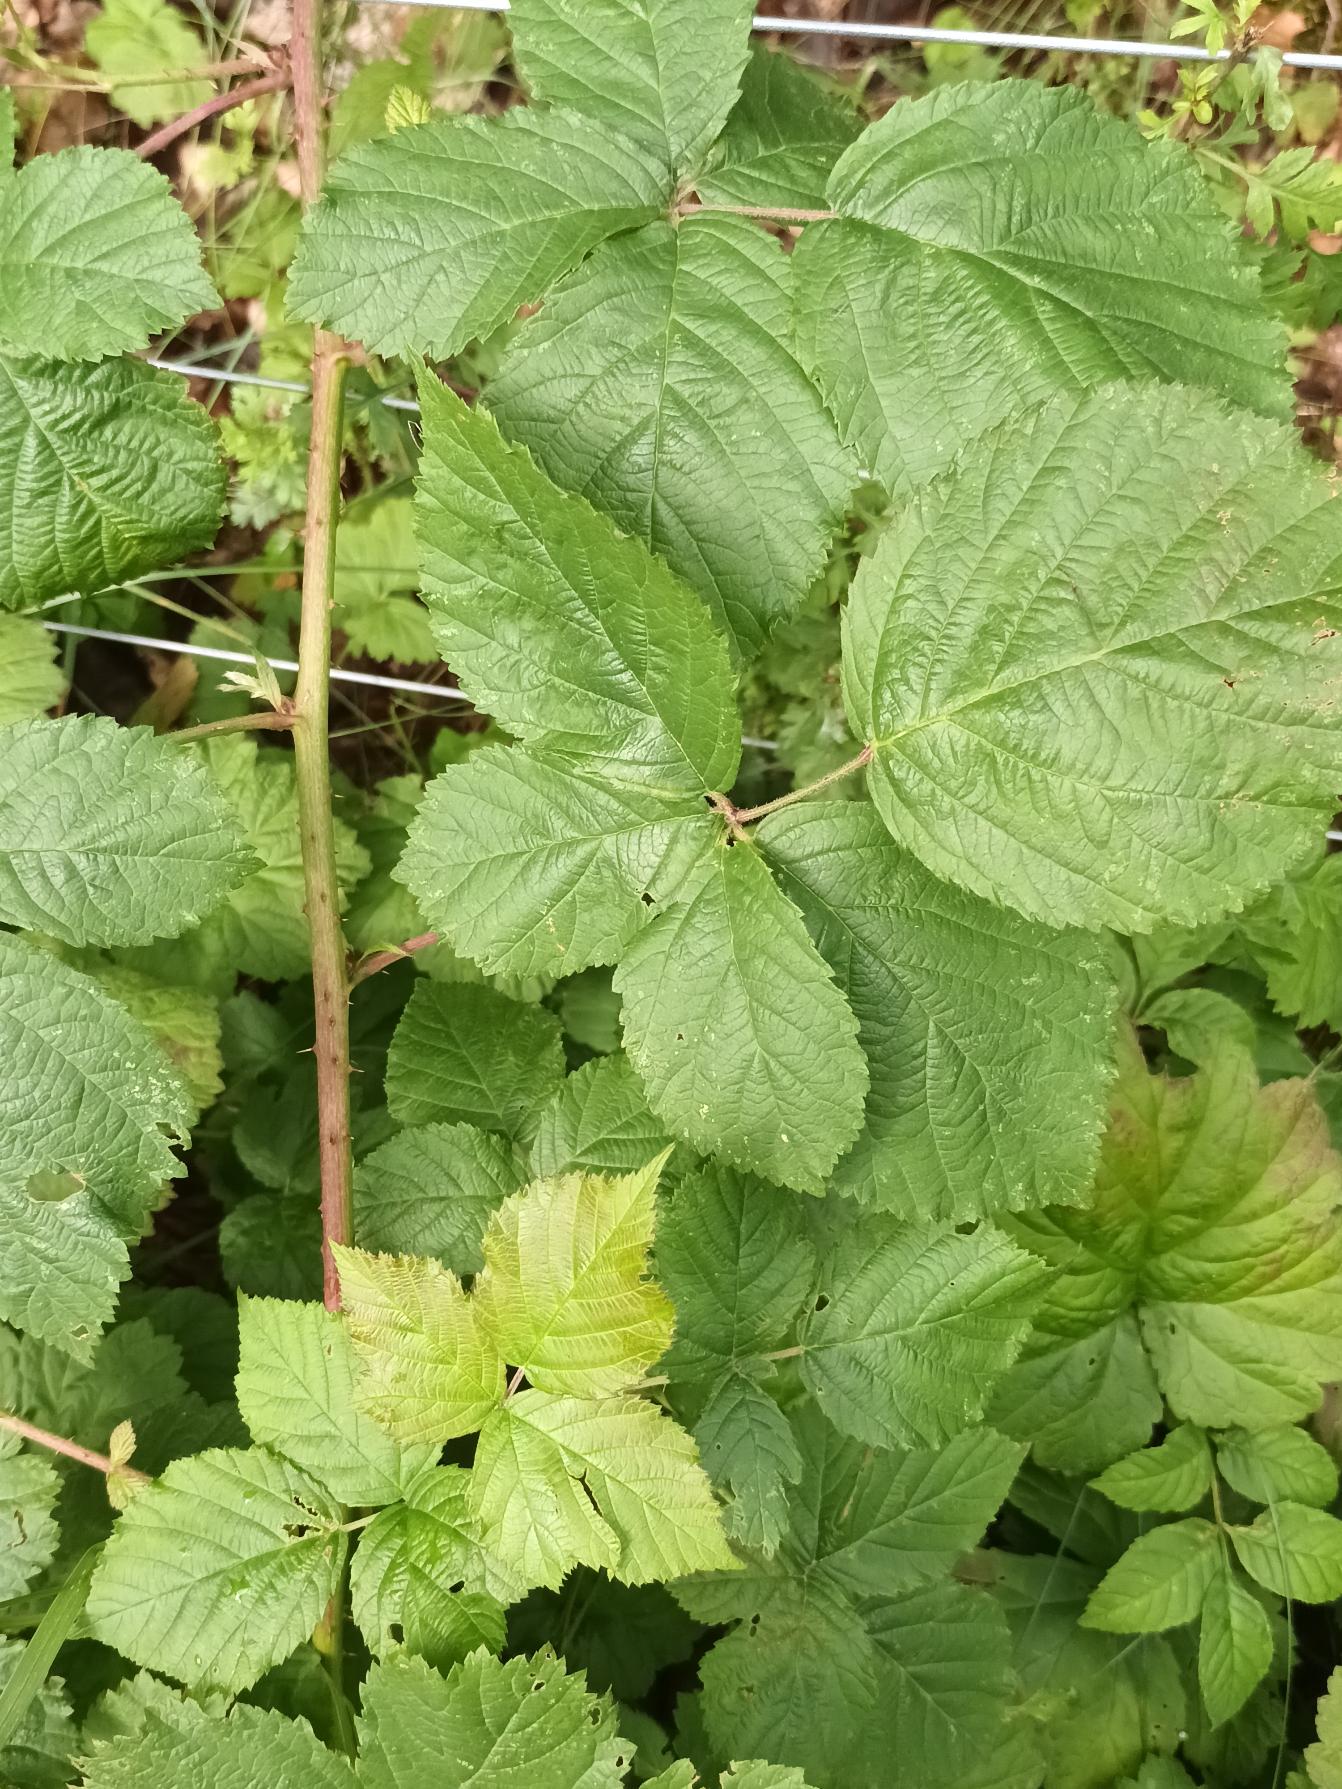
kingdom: Plantae
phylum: Tracheophyta
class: Magnoliopsida
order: Rosales
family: Rosaceae
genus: Rubus
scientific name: Rubus luminosus
